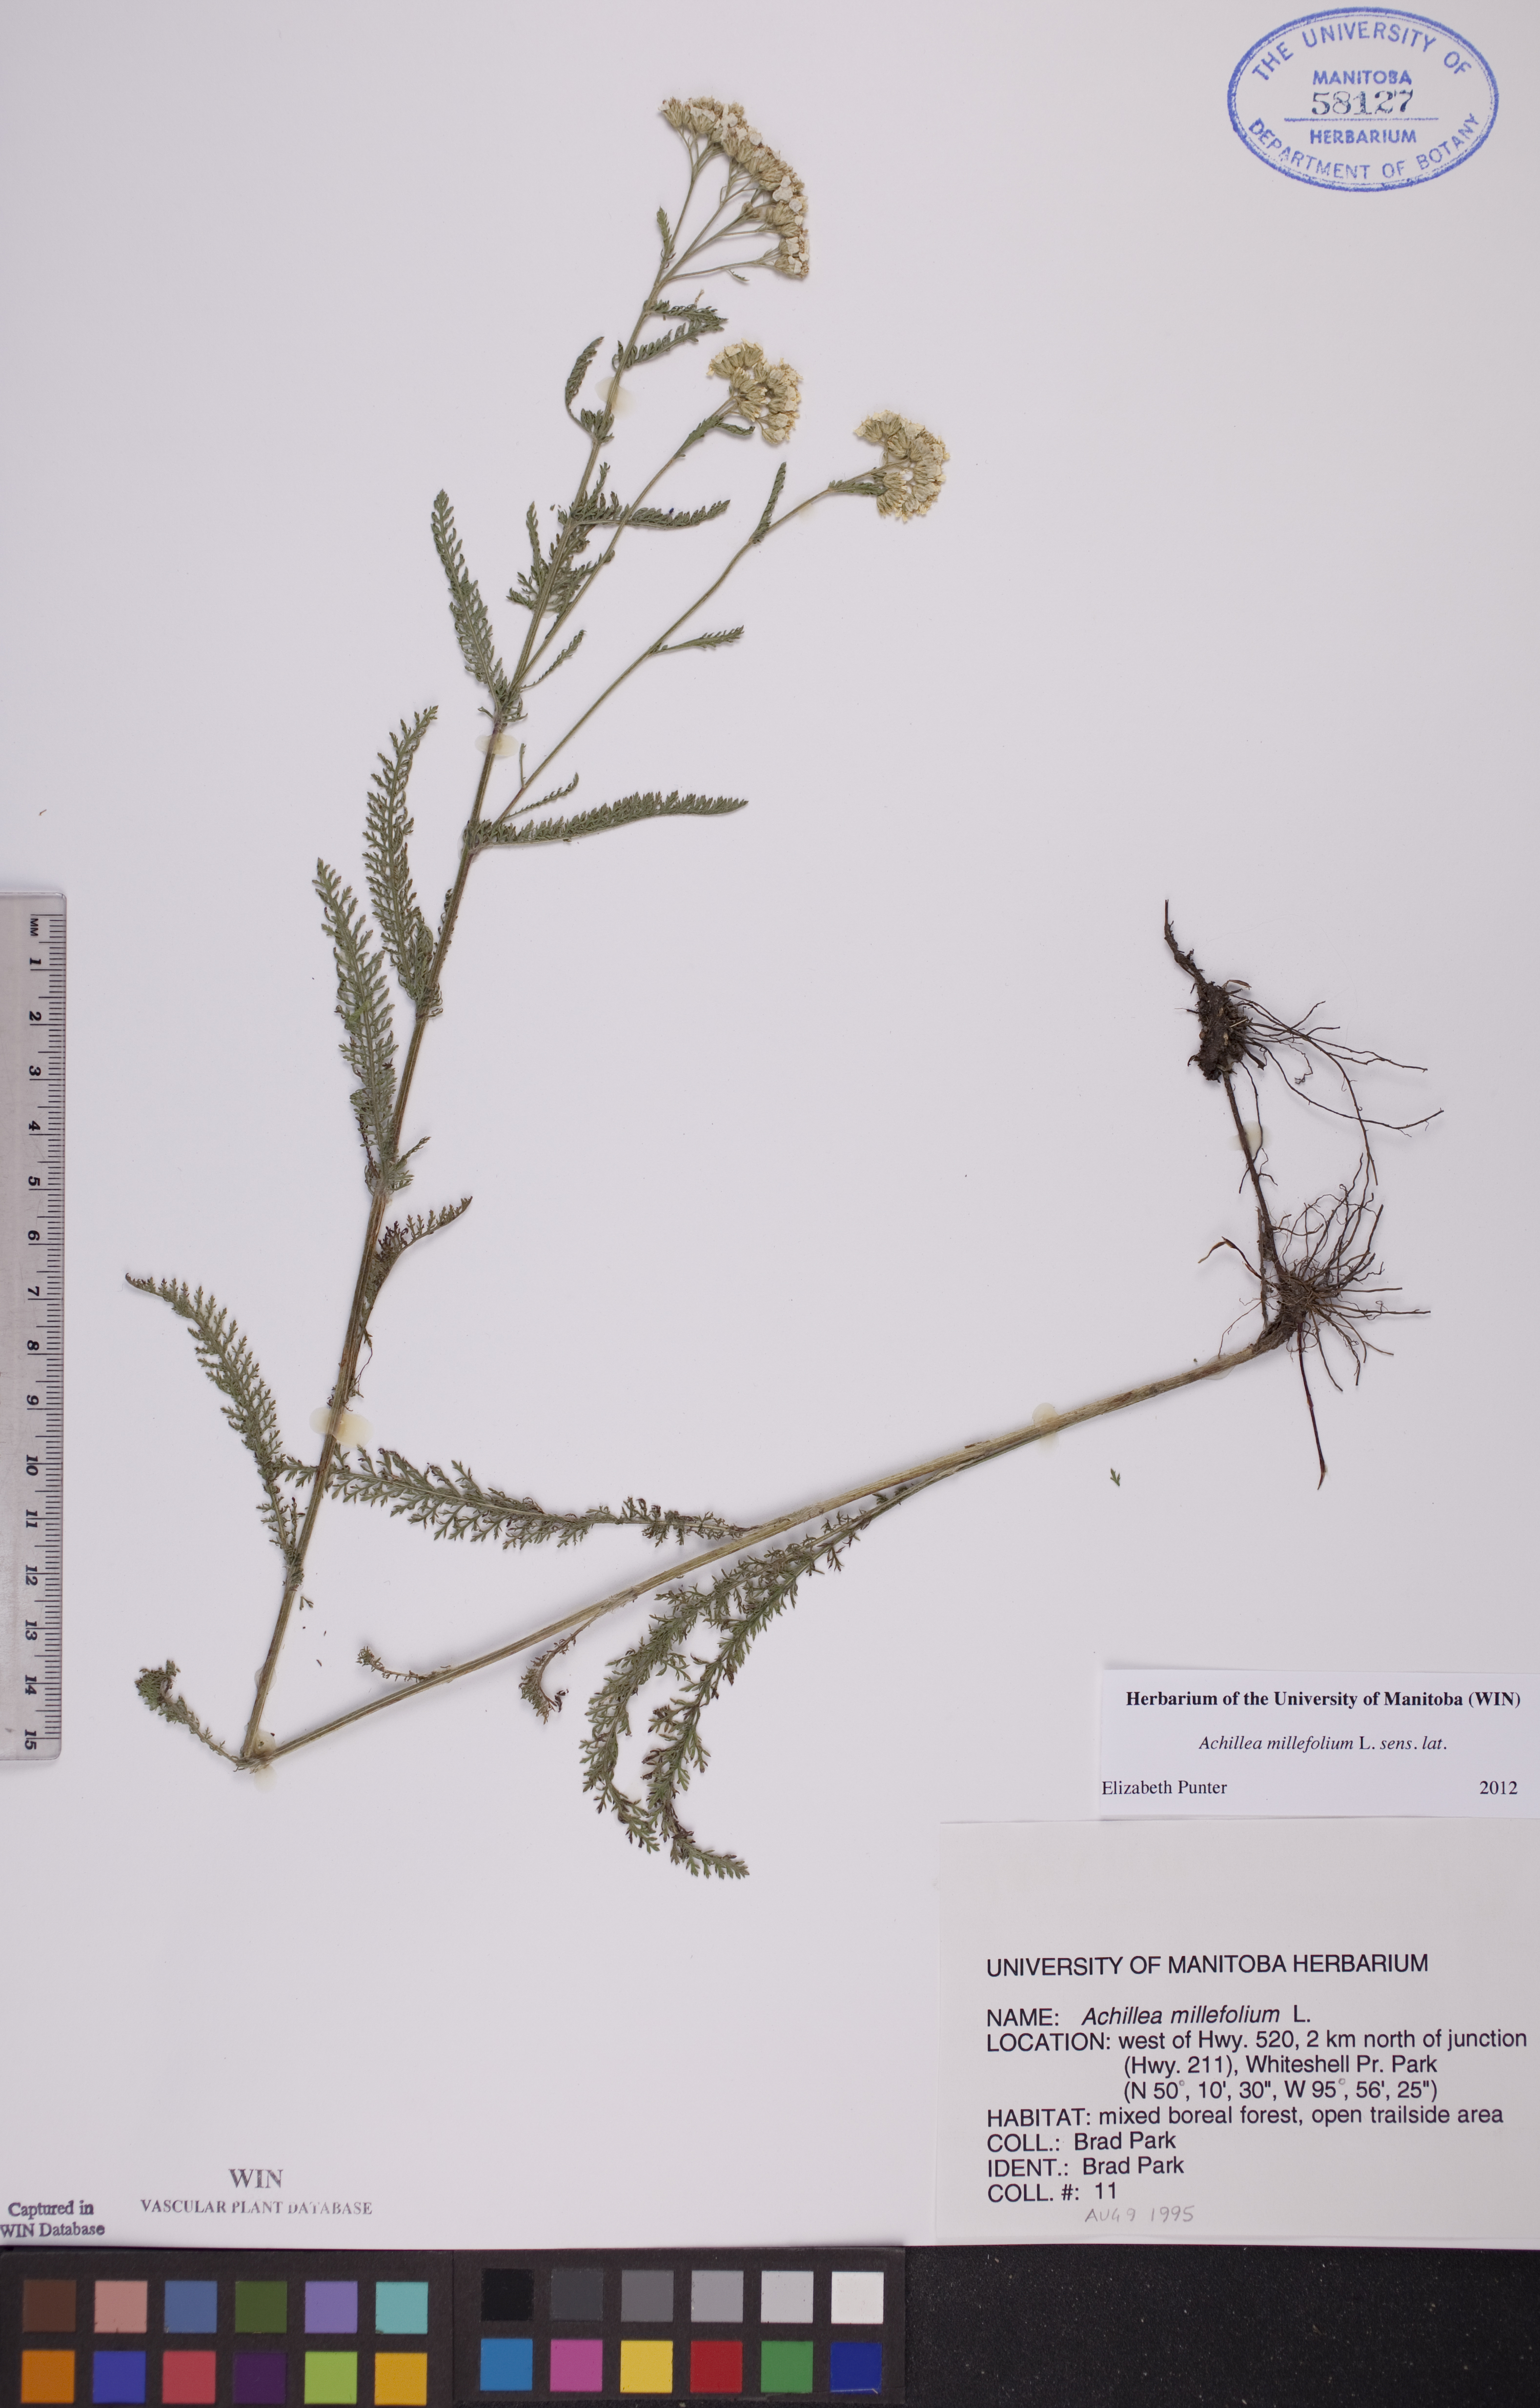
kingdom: Plantae
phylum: Tracheophyta
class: Magnoliopsida
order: Asterales
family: Asteraceae
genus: Achillea
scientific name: Achillea millefolium
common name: Yarrow
